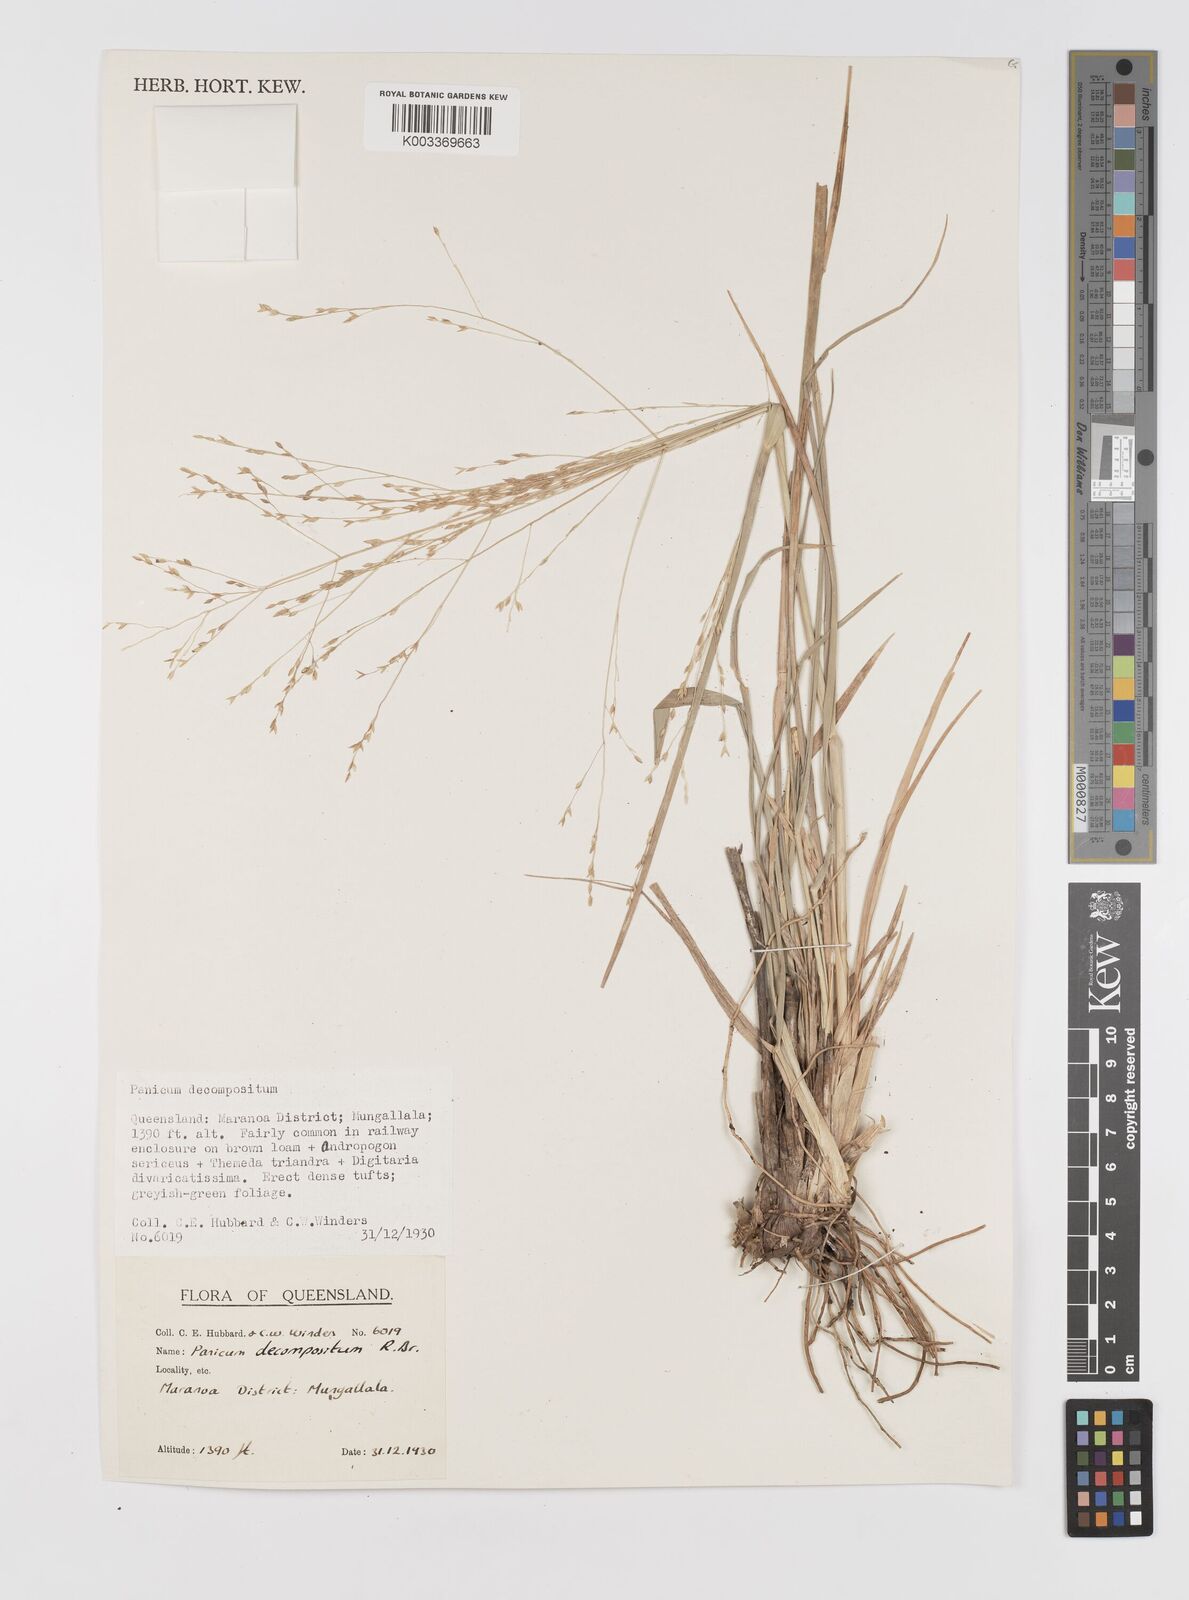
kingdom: Plantae
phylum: Tracheophyta
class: Liliopsida
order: Poales
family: Poaceae
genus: Panicum
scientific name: Panicum decompositum
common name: Australian millet
